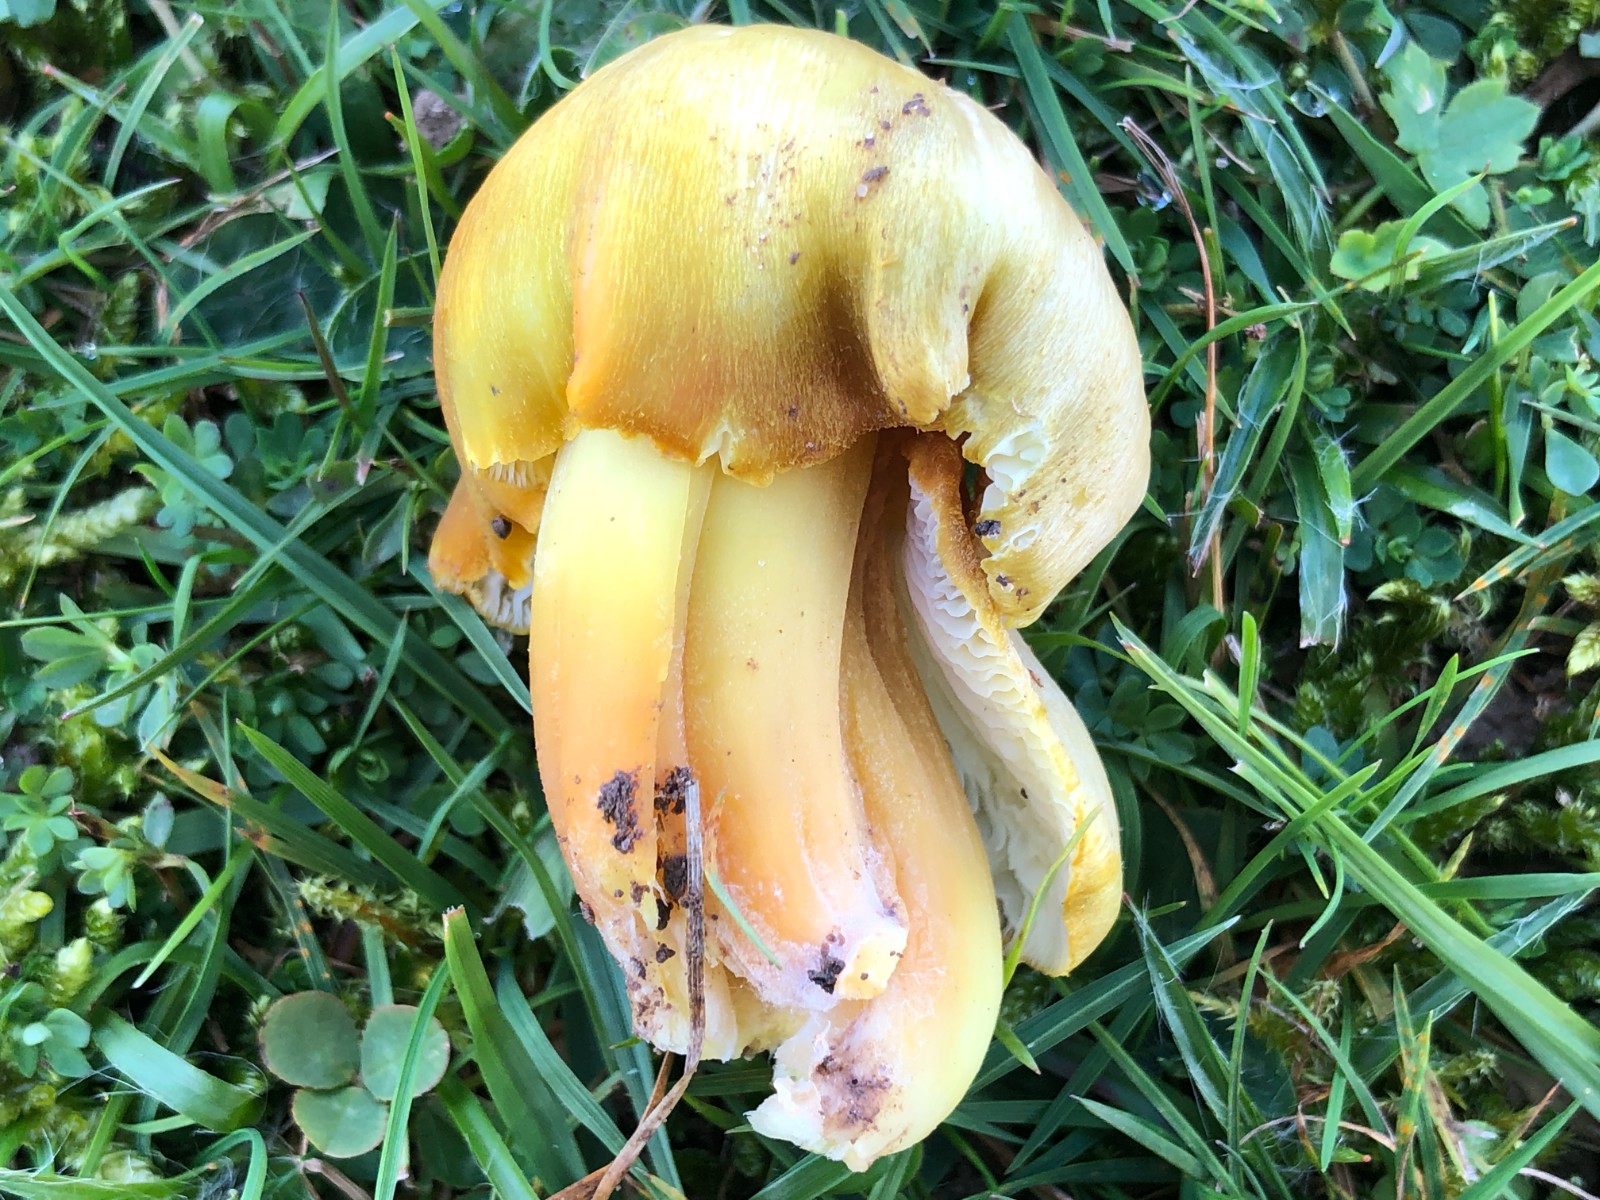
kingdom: Fungi
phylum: Basidiomycota
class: Agaricomycetes
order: Agaricales
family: Hygrophoraceae
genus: Hygrocybe
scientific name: Hygrocybe citrinovirens
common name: grøngul vokshat
